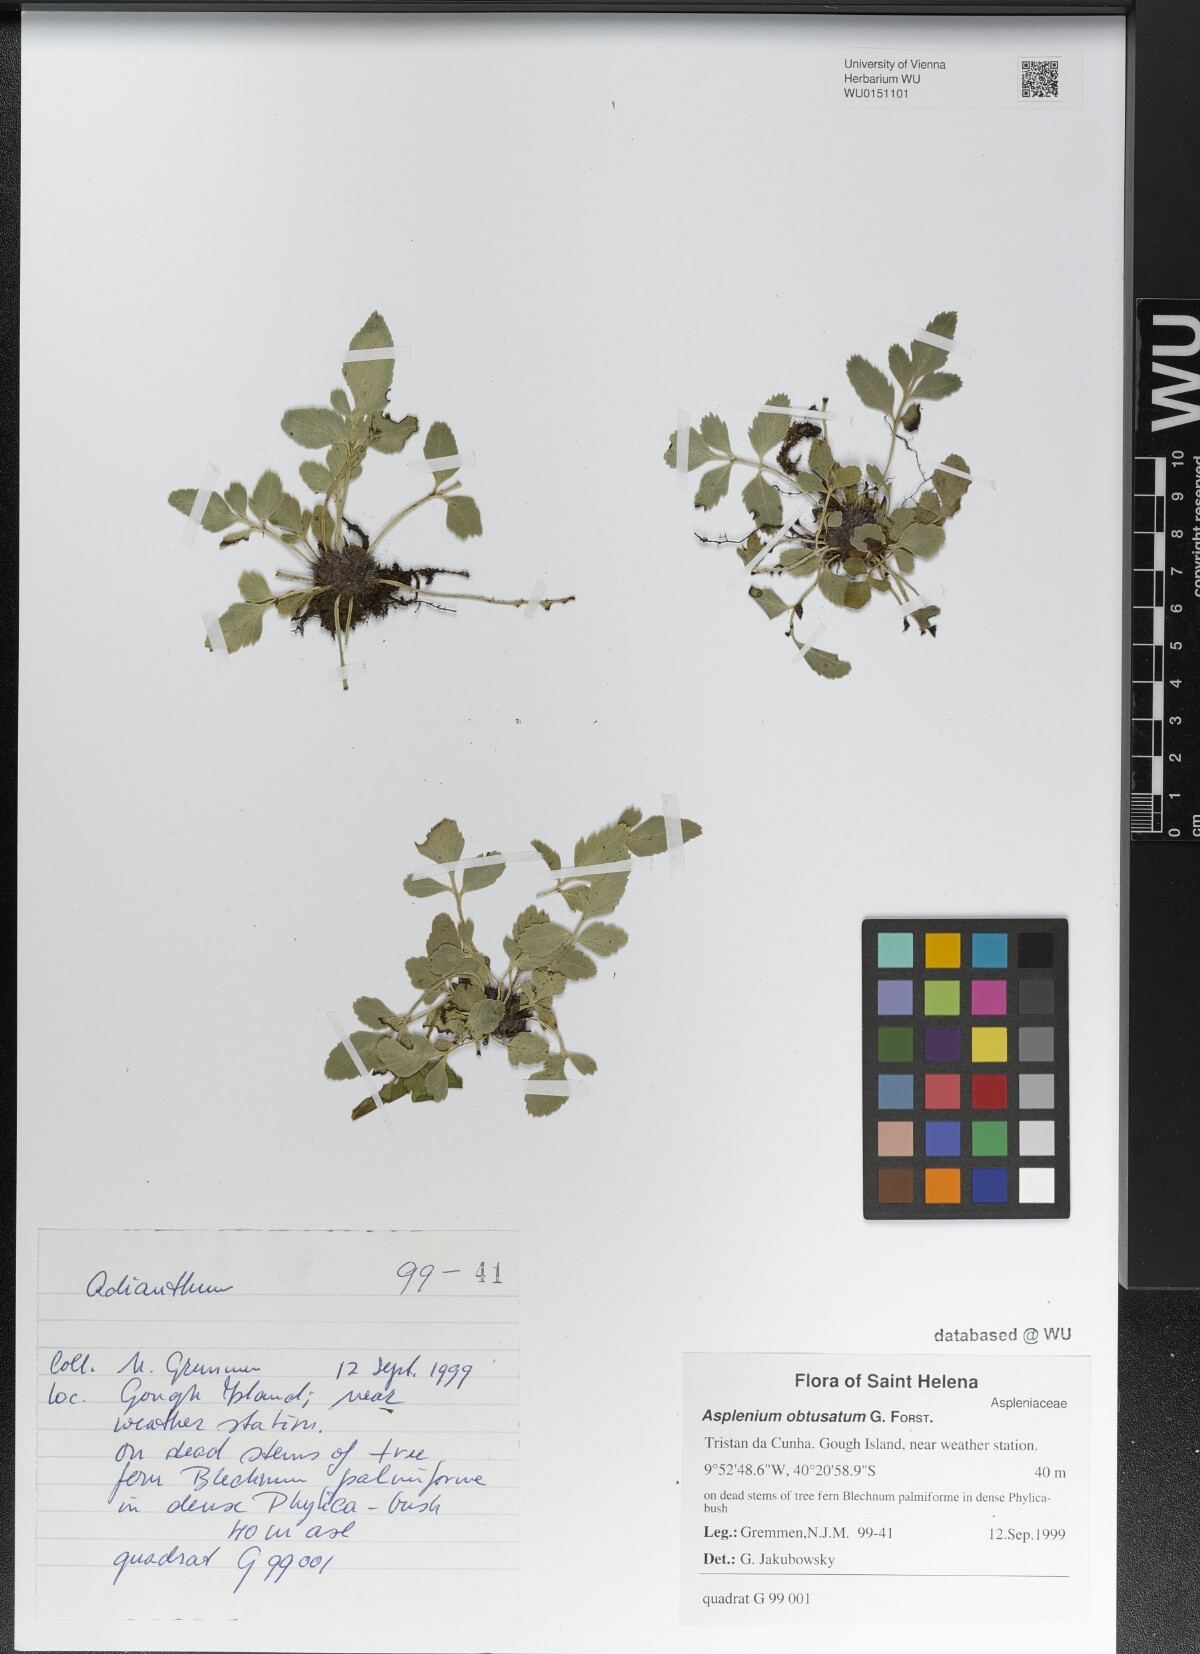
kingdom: Plantae
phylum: Tracheophyta
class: Polypodiopsida
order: Polypodiales
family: Aspleniaceae
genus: Asplenium
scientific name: Asplenium obtusatum
